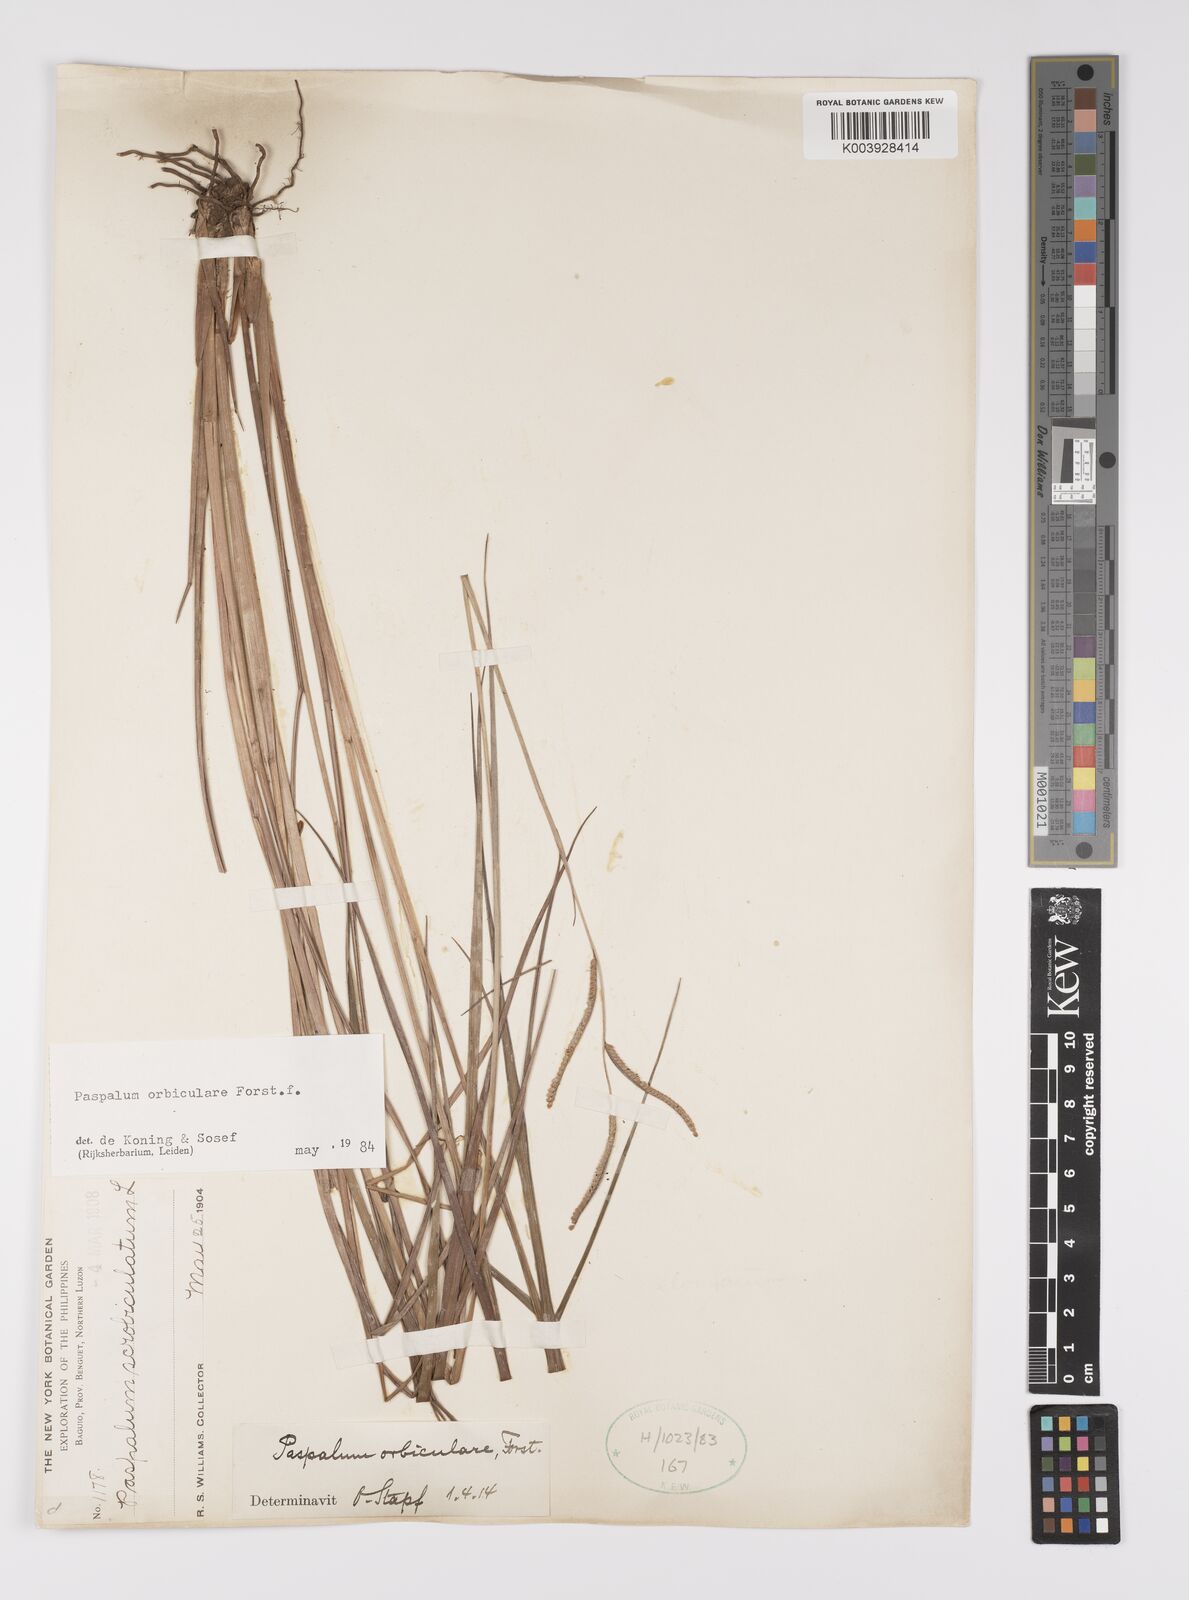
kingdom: Plantae
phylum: Tracheophyta
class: Liliopsida
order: Poales
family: Poaceae
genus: Paspalum
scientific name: Paspalum scrobiculatum
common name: Kodo millet
